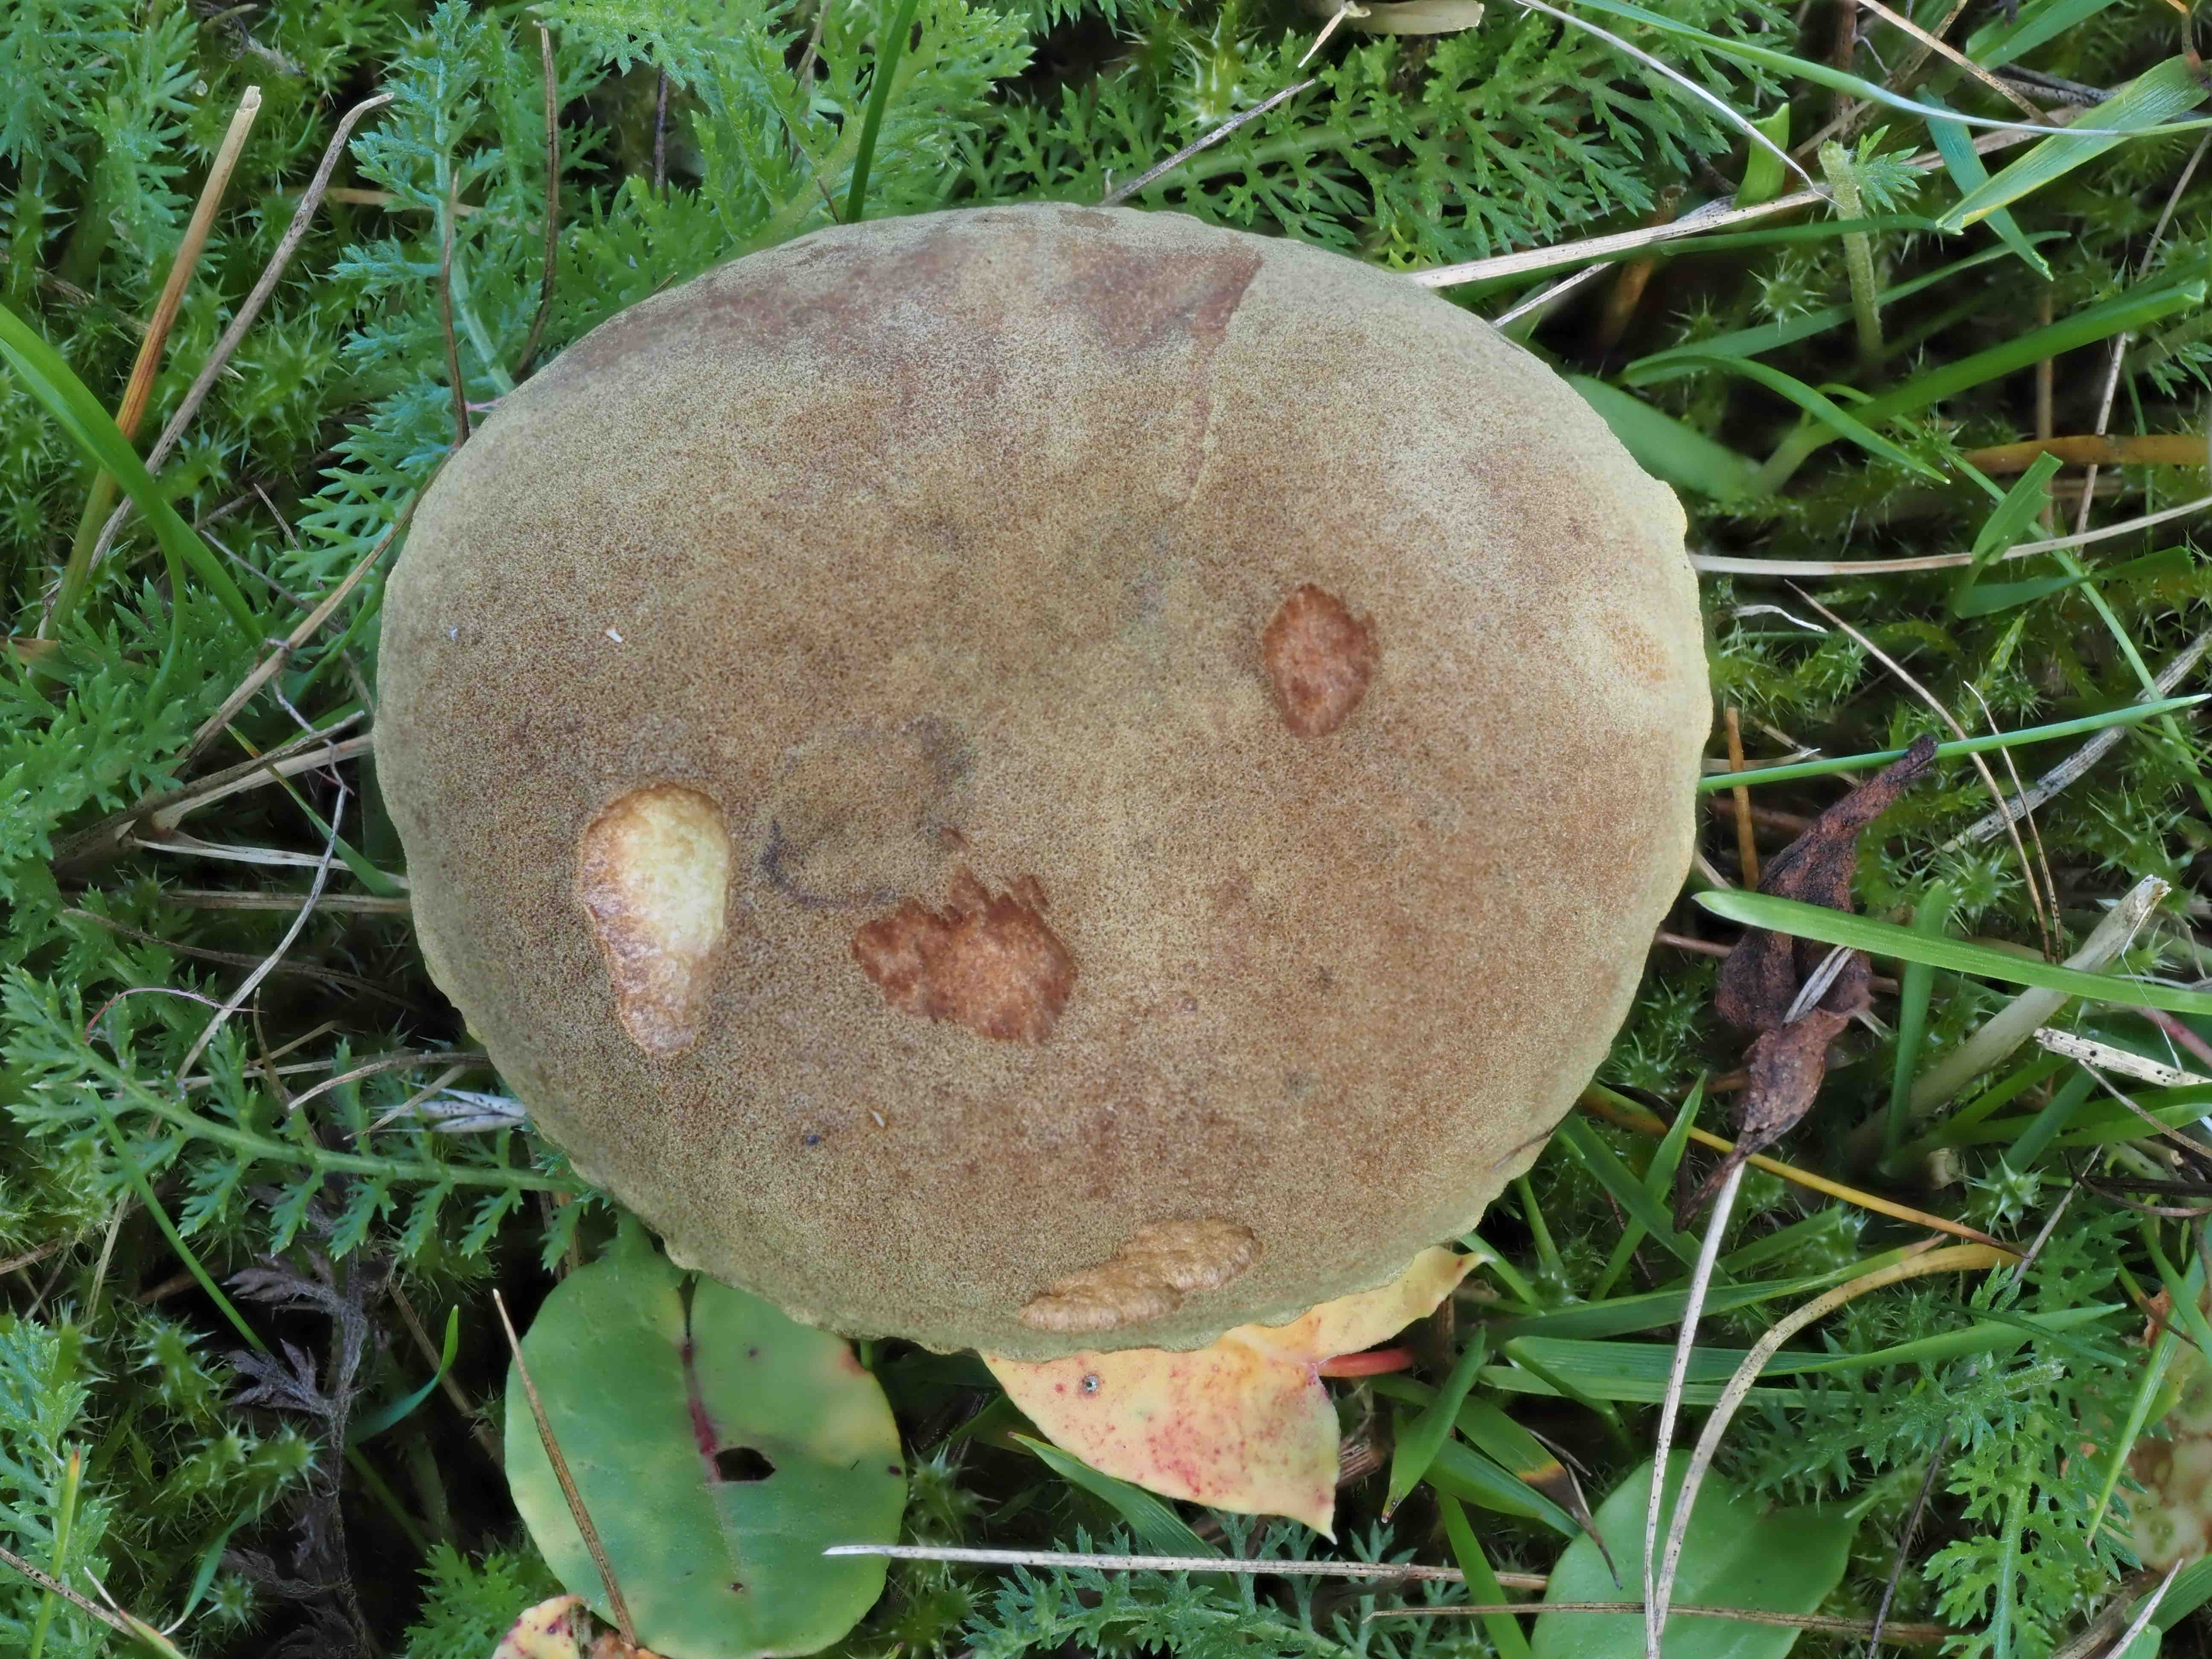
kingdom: Fungi
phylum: Basidiomycota
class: Agaricomycetes
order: Boletales
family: Boletaceae
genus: Xerocomus
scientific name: Xerocomus ferrugineus
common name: vaskeskinds-rørhat
